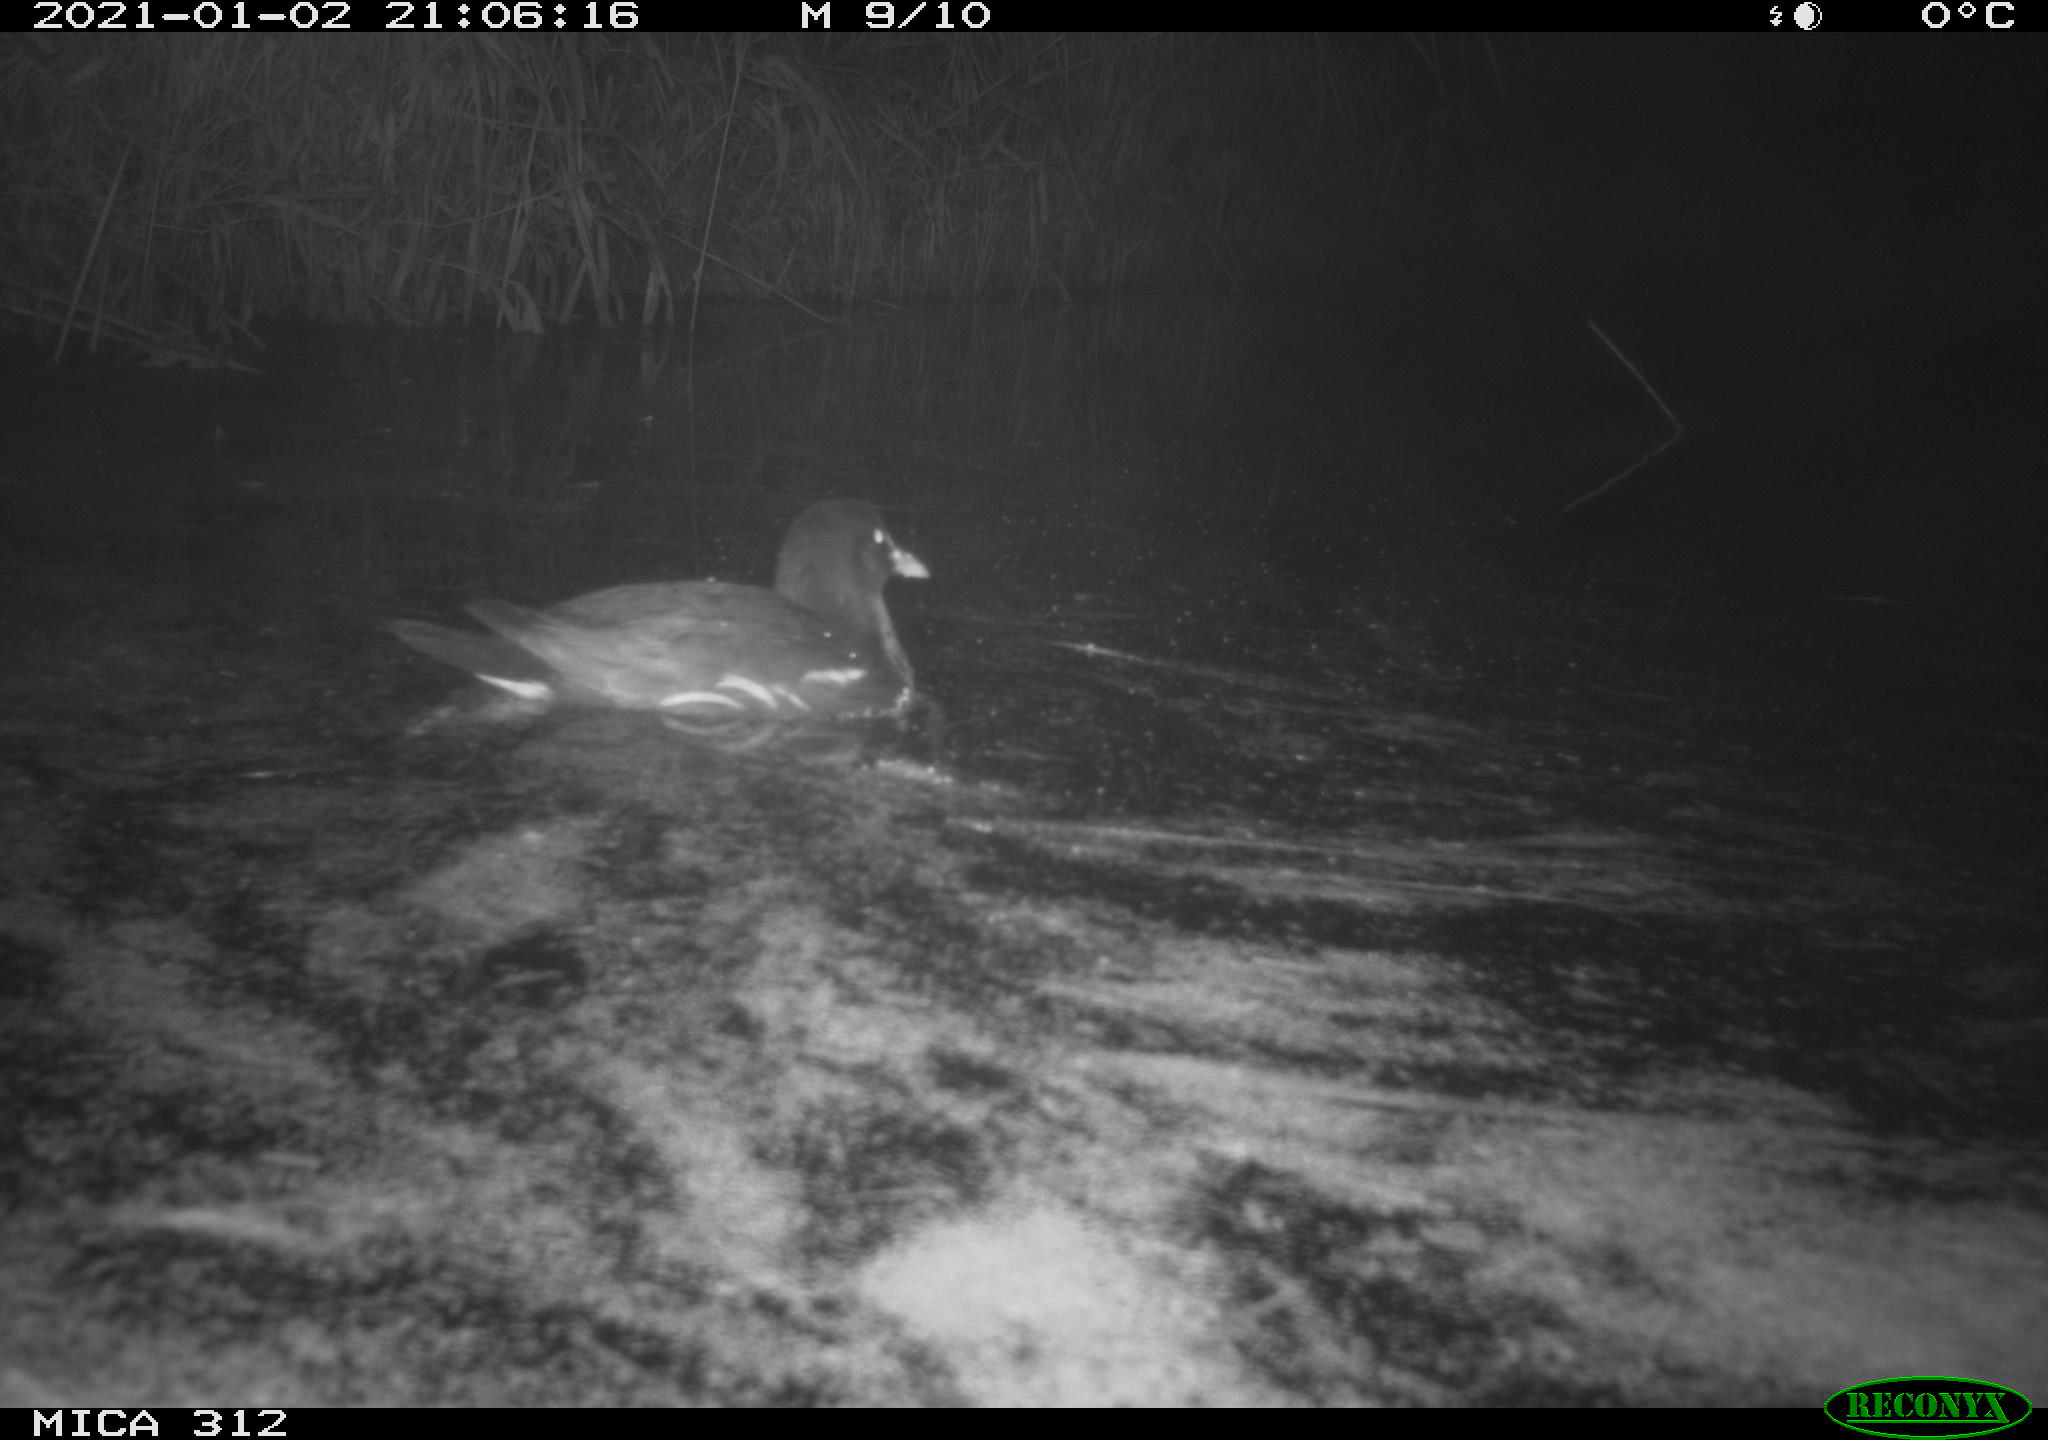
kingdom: Animalia
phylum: Chordata
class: Aves
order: Gruiformes
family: Rallidae
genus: Gallinula
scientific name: Gallinula chloropus
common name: Common moorhen
